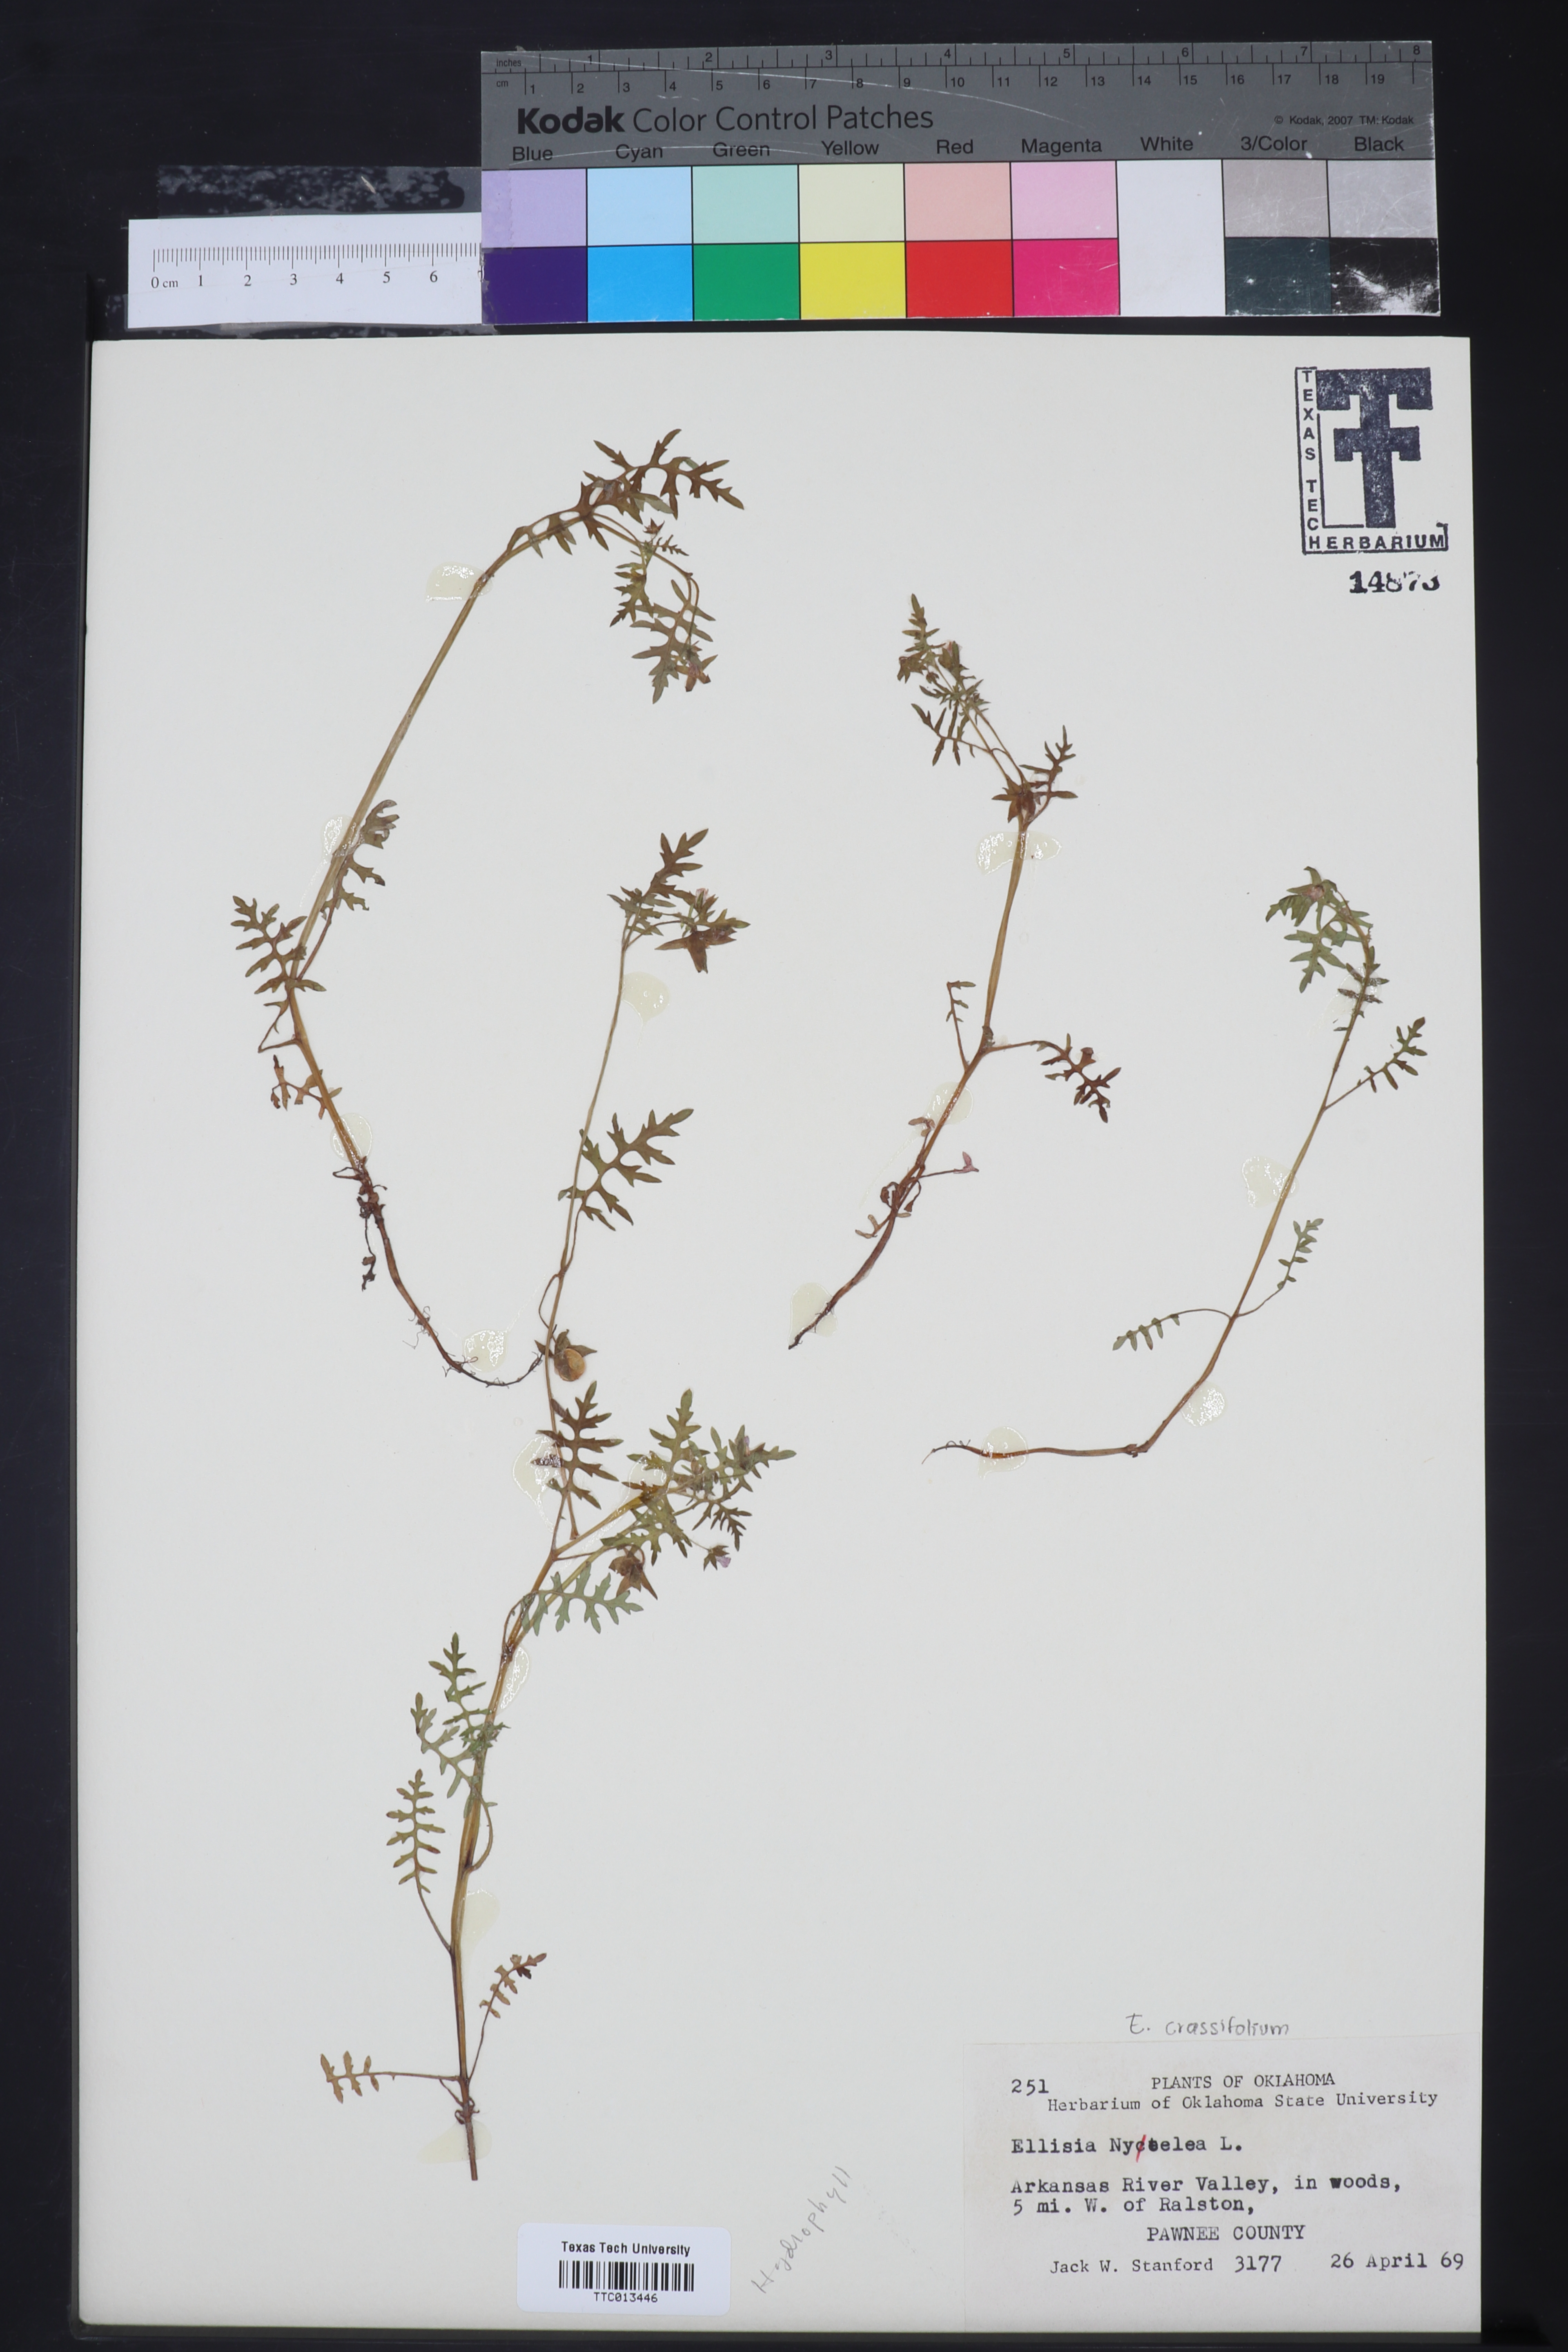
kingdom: Plantae
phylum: Tracheophyta
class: Magnoliopsida
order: Boraginales
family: Hydrophyllaceae
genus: Ellisia
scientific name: Ellisia nyctelea
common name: Aunt lucy
